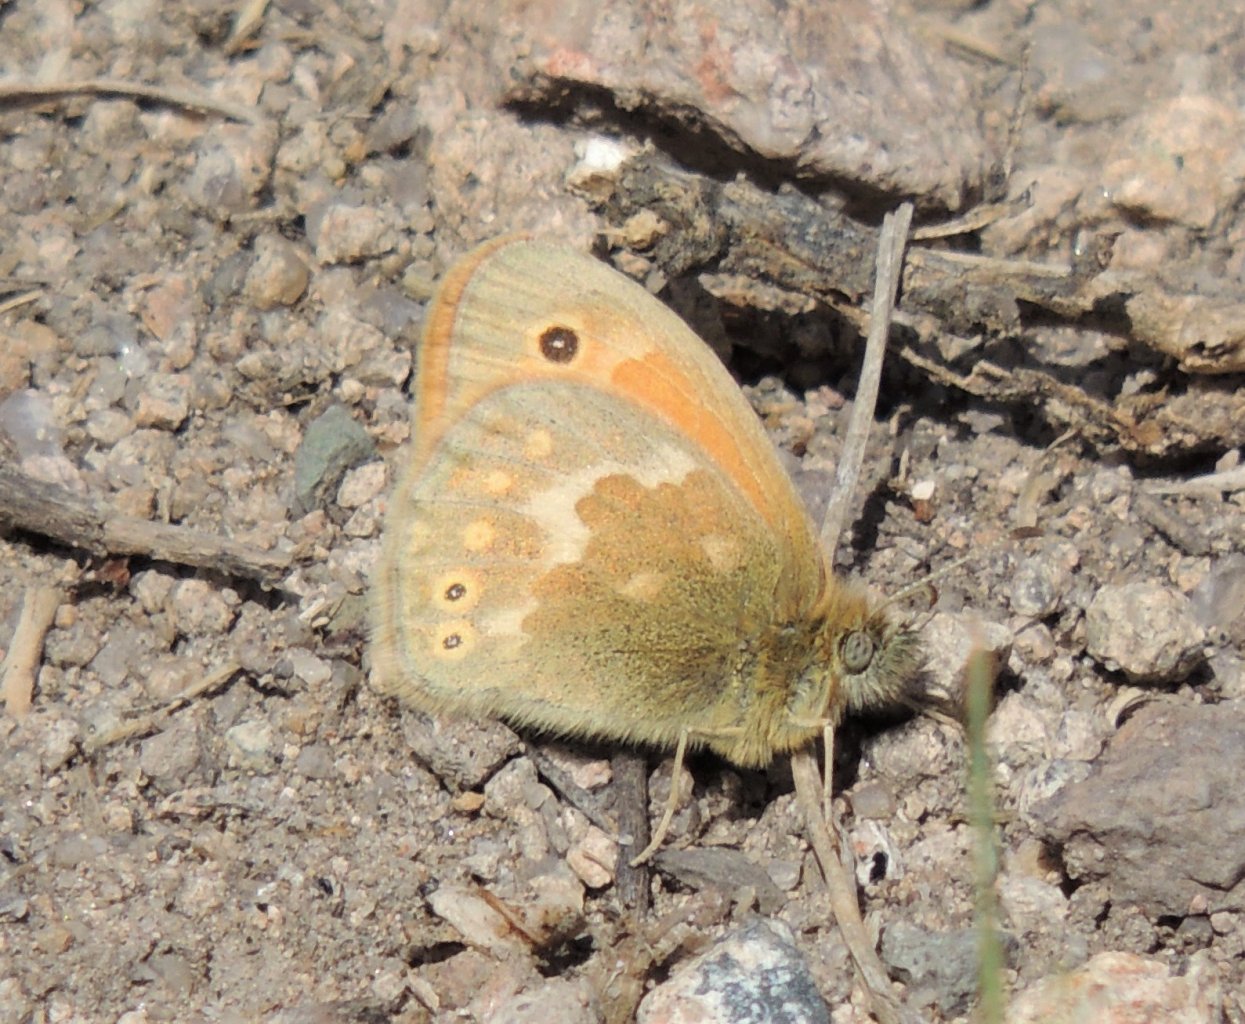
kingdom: Animalia
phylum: Arthropoda
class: Insecta
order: Lepidoptera
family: Nymphalidae
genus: Coenonympha
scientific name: Coenonympha tullia
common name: Large Heath
